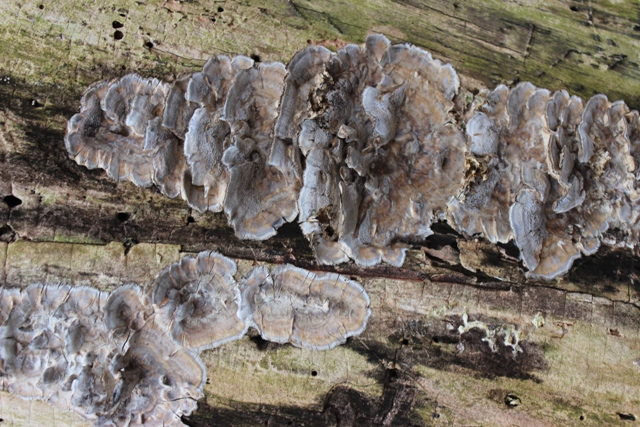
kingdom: Fungi
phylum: Basidiomycota
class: Agaricomycetes
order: Polyporales
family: Phanerochaetaceae
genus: Bjerkandera
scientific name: Bjerkandera adusta
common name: sveden sodporesvamp
